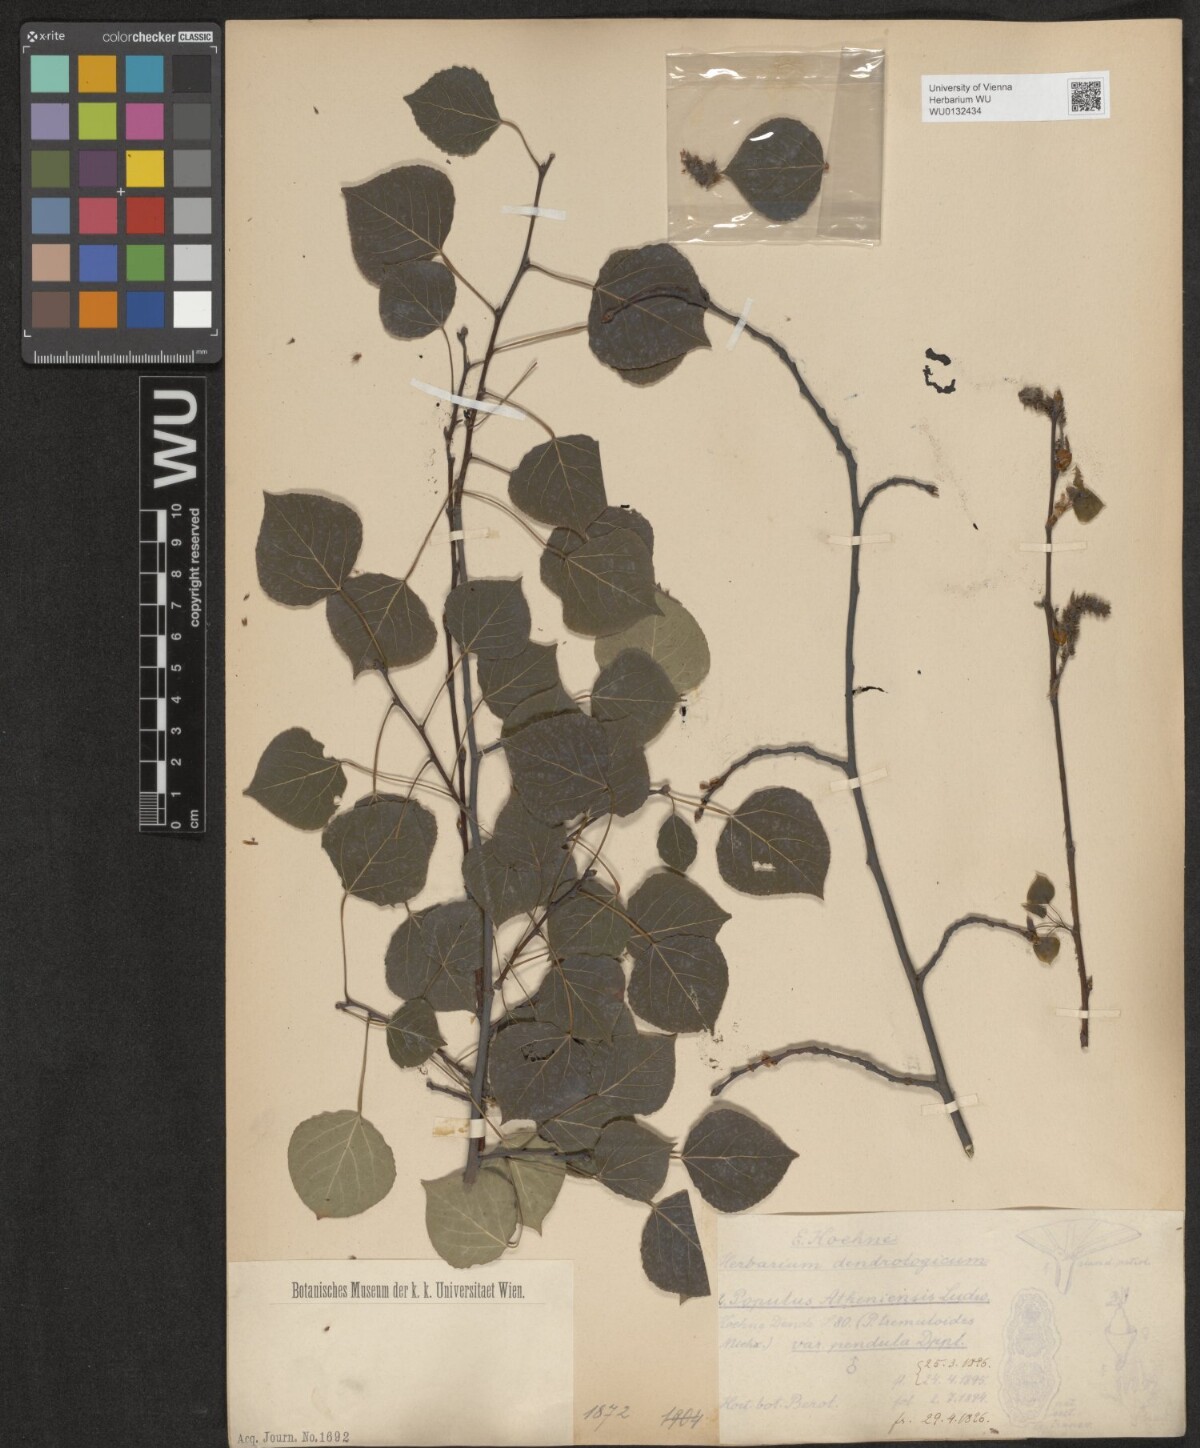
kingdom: Plantae
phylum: Tracheophyta
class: Magnoliopsida
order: Malpighiales
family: Salicaceae
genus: Populus
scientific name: Populus tremuloides
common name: Quaking aspen
